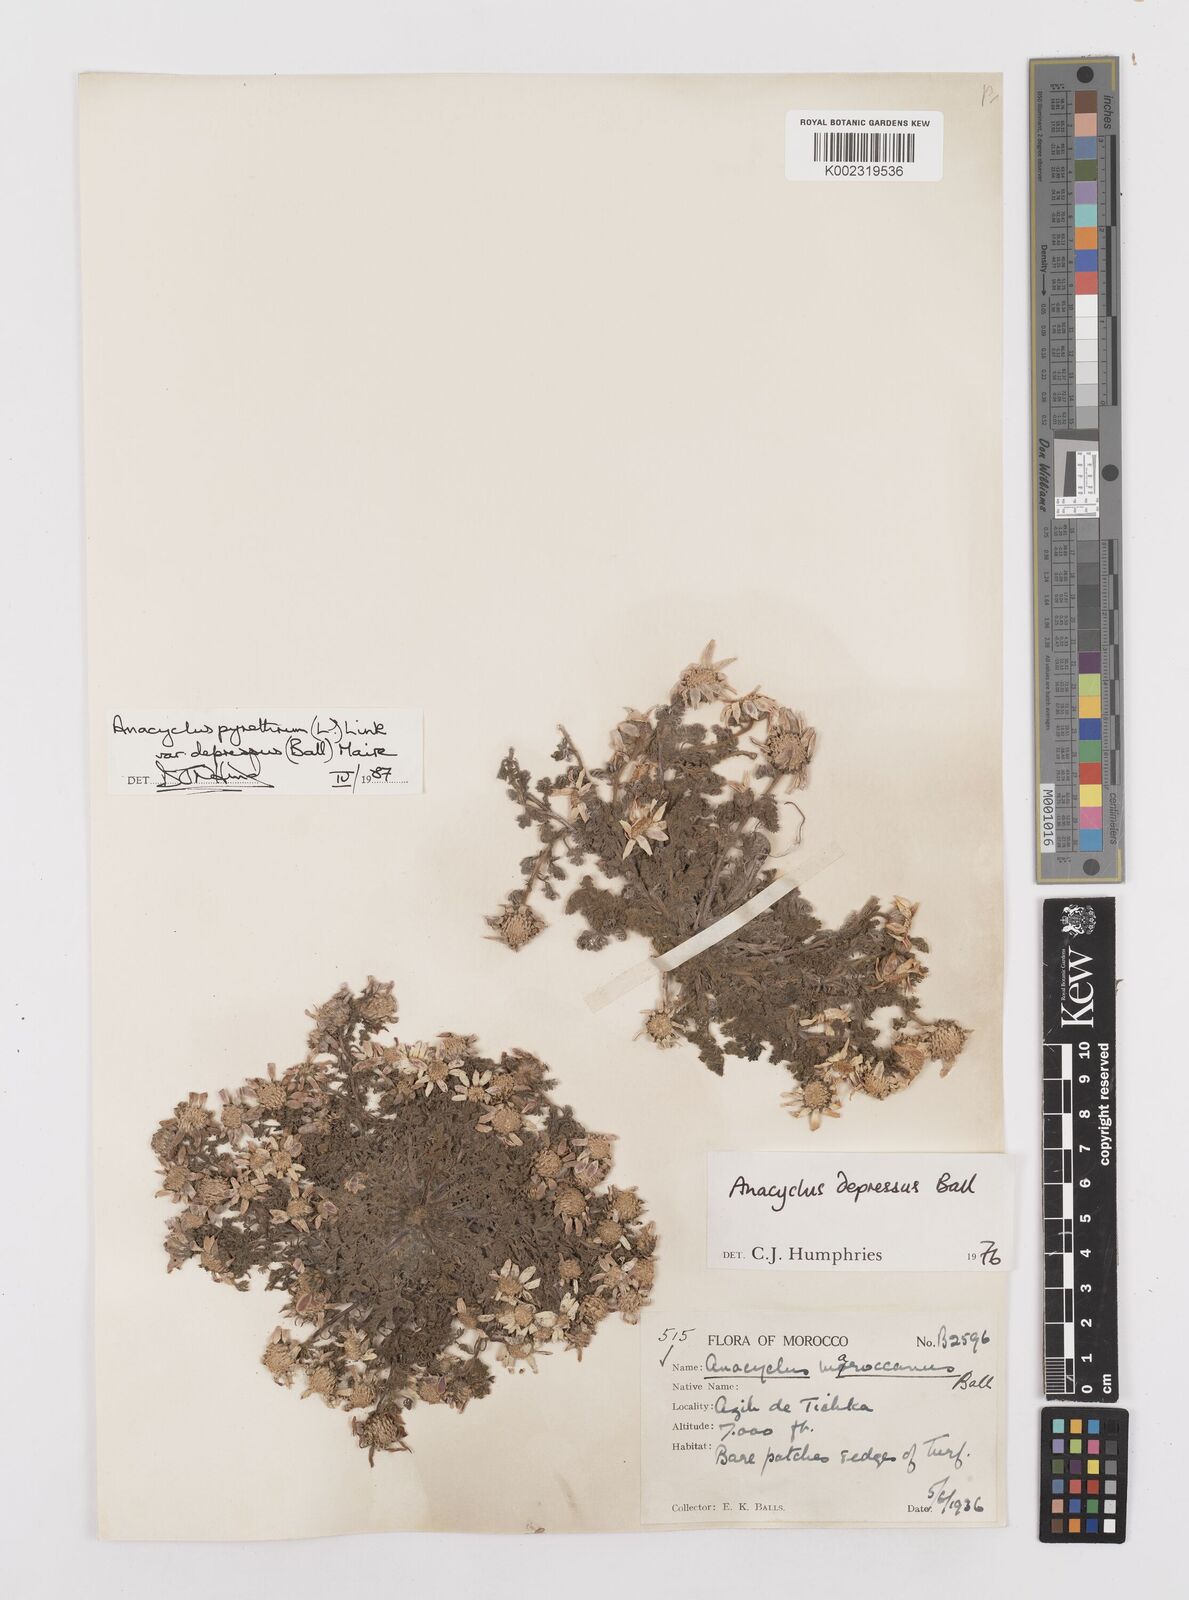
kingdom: Plantae
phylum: Tracheophyta
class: Magnoliopsida
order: Asterales
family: Asteraceae
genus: Anacyclus
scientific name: Anacyclus pyrethrum
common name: Mt. atlas daisy
